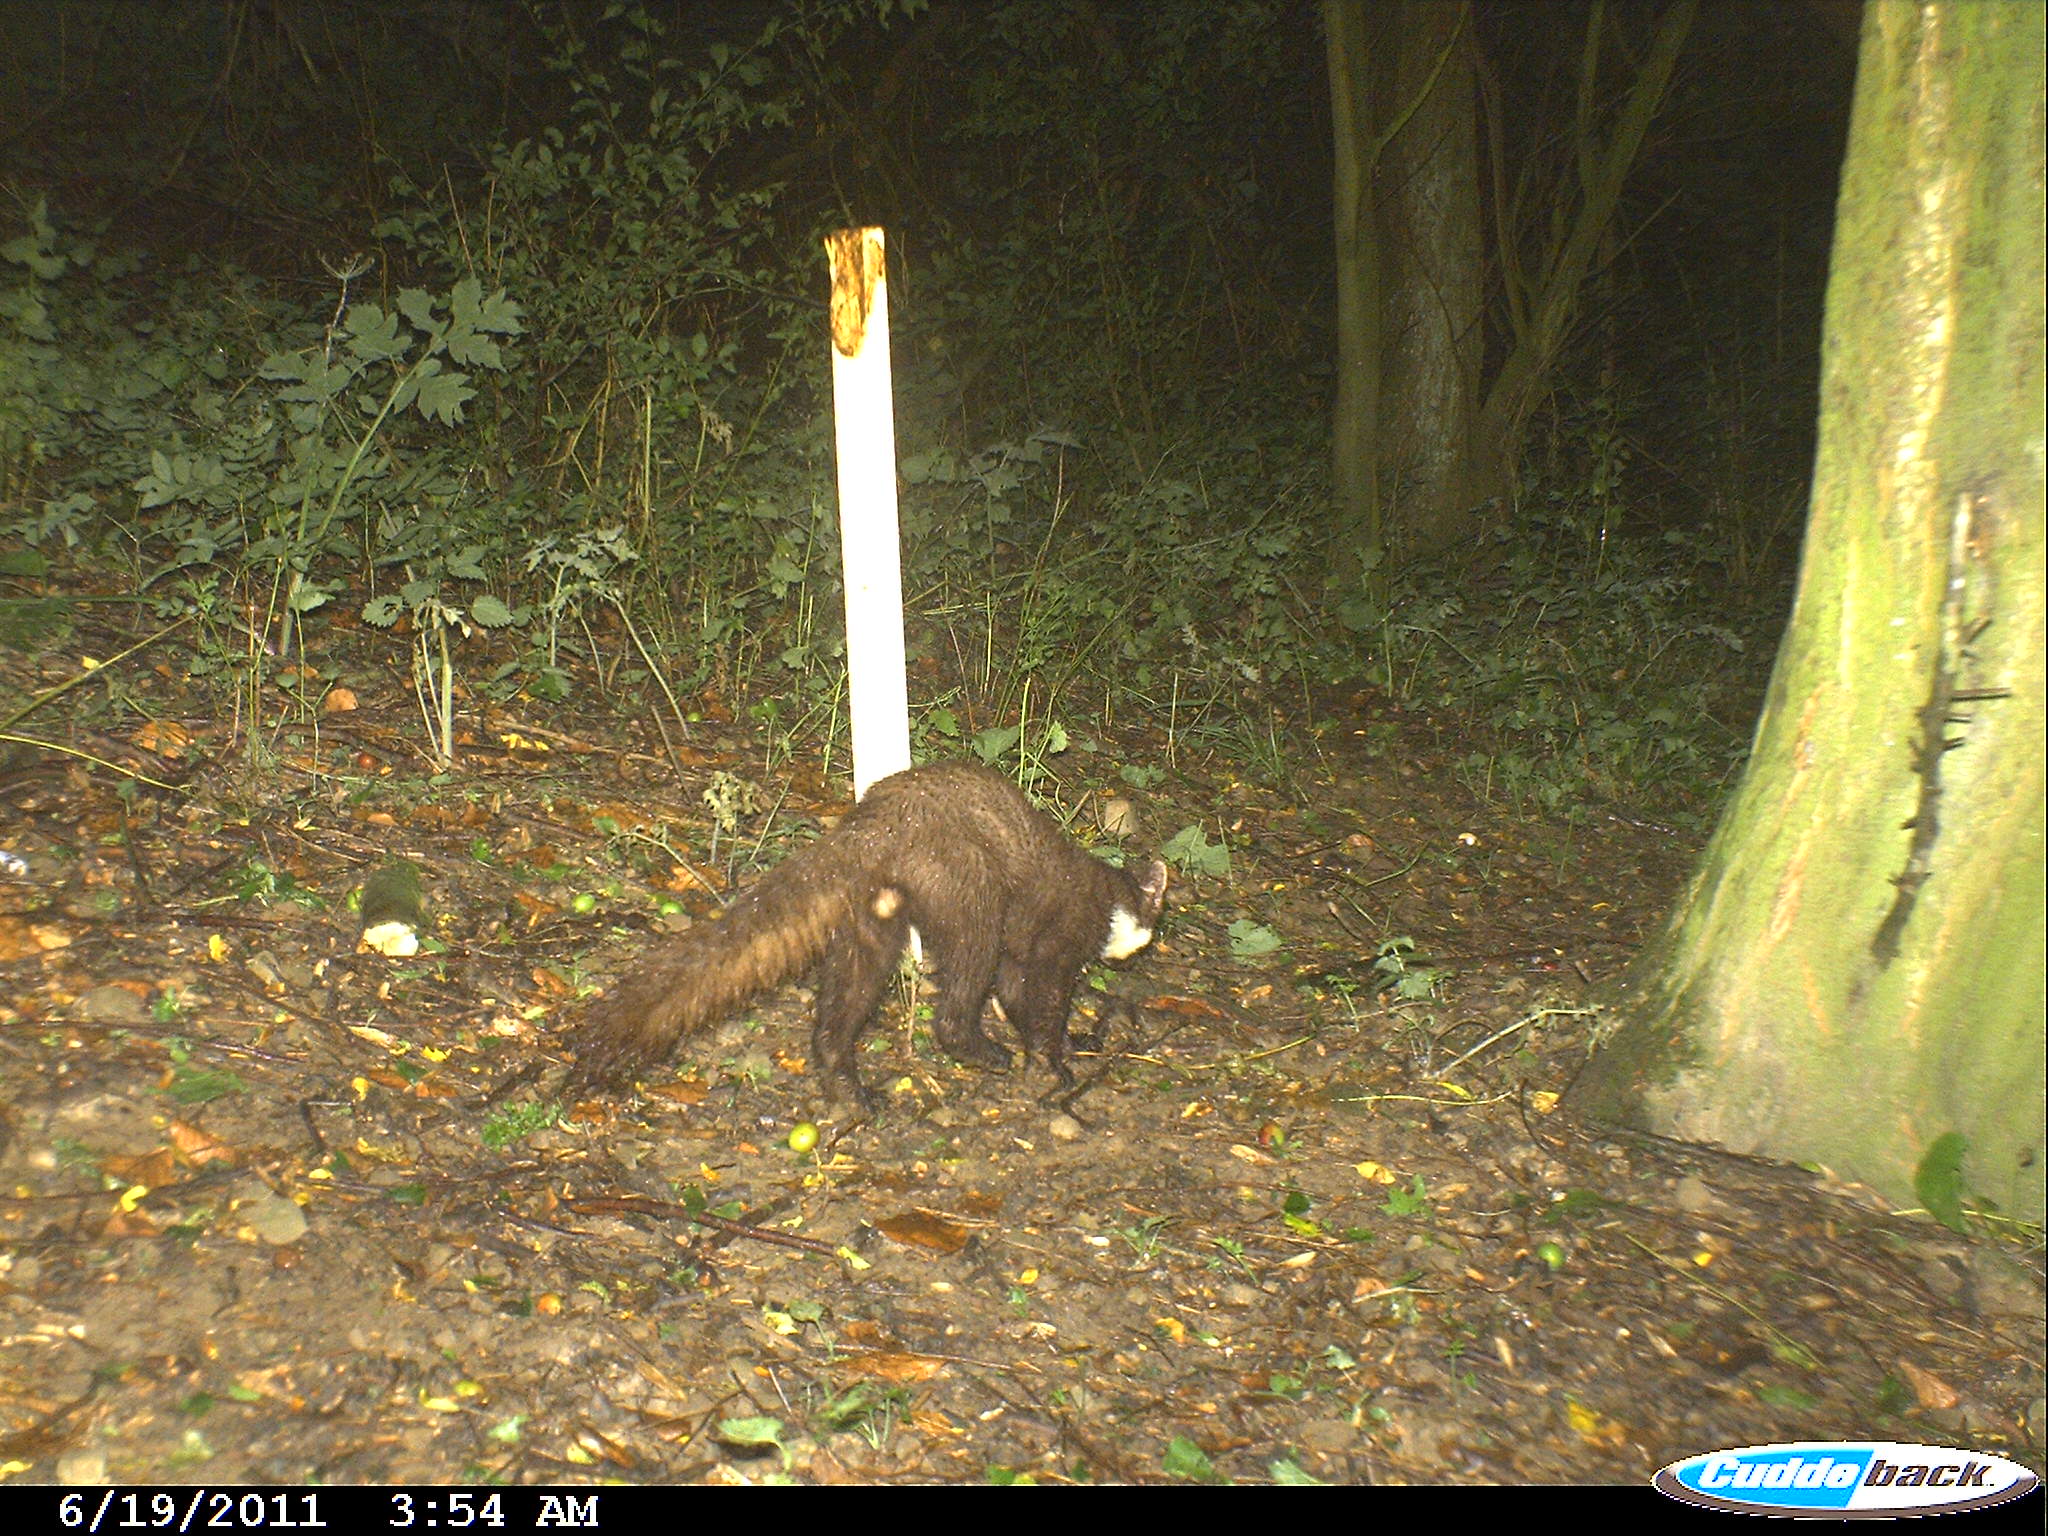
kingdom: Animalia
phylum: Chordata
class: Mammalia
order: Carnivora
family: Mustelidae
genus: Martes
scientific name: Martes
